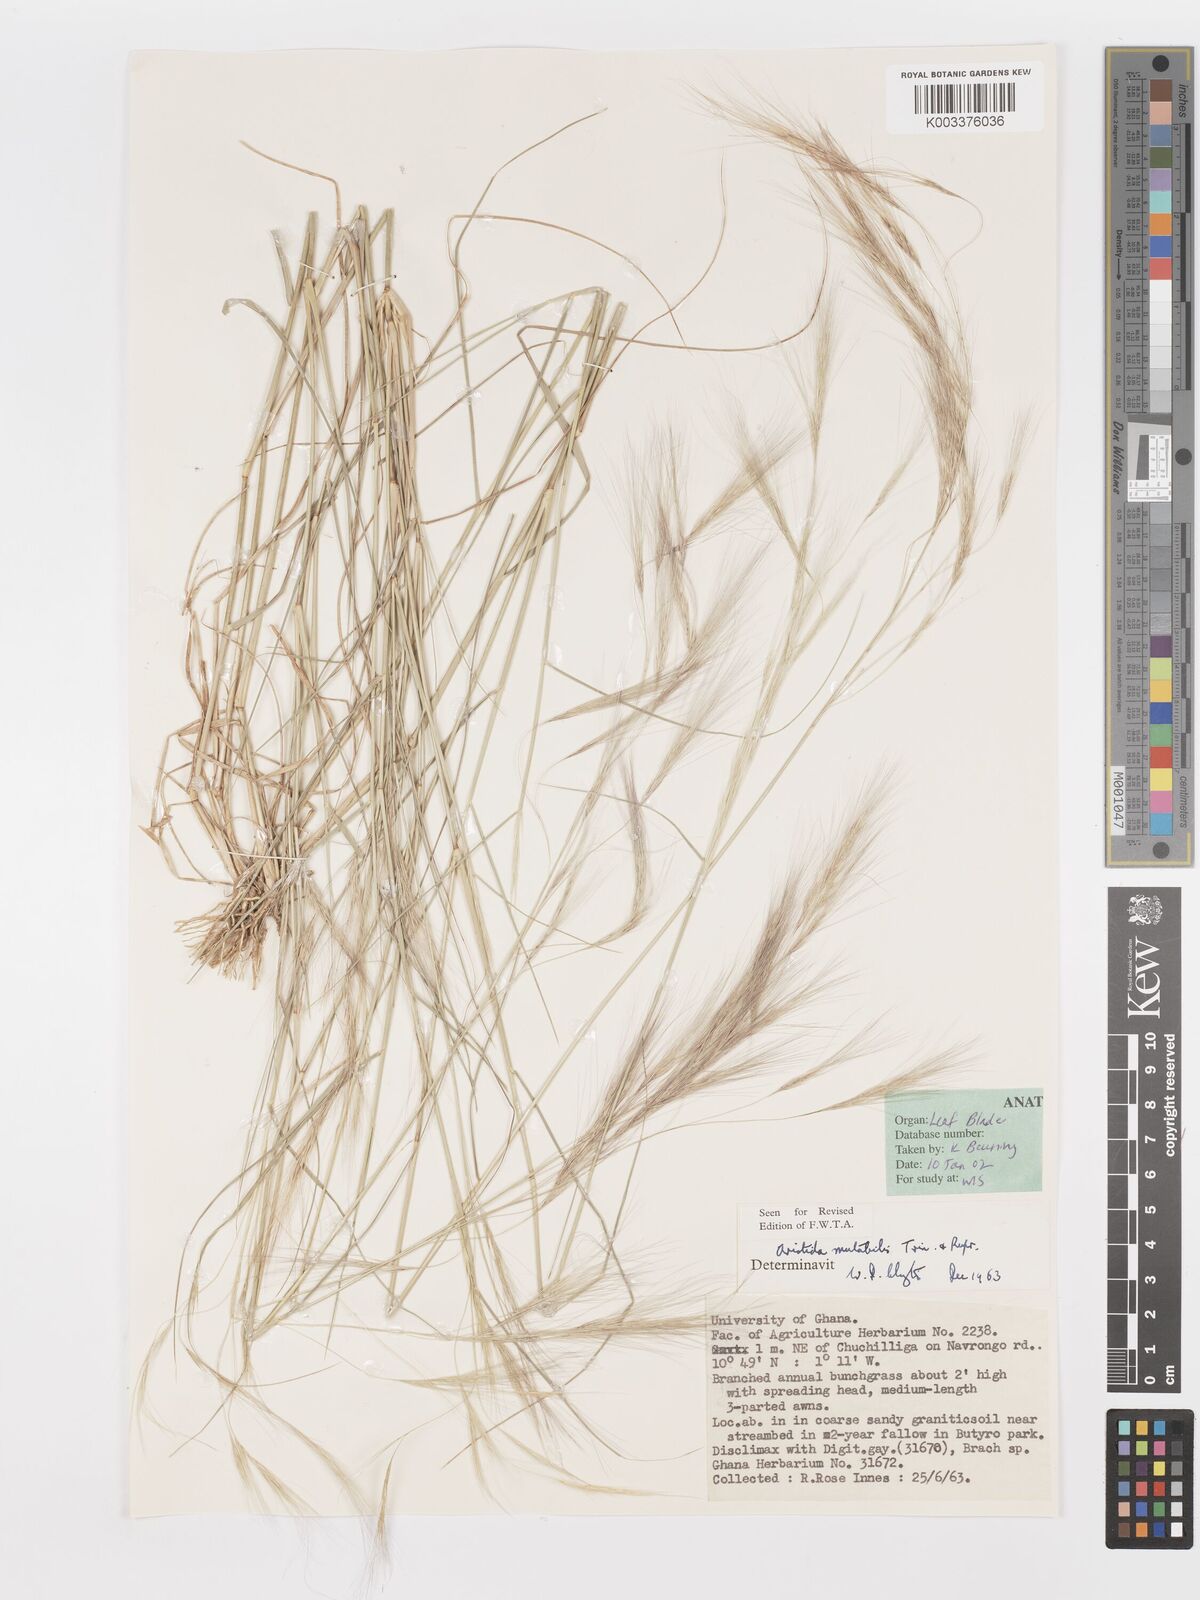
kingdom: Plantae
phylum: Tracheophyta
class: Liliopsida
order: Poales
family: Poaceae
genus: Aristida
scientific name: Aristida mutabilis
